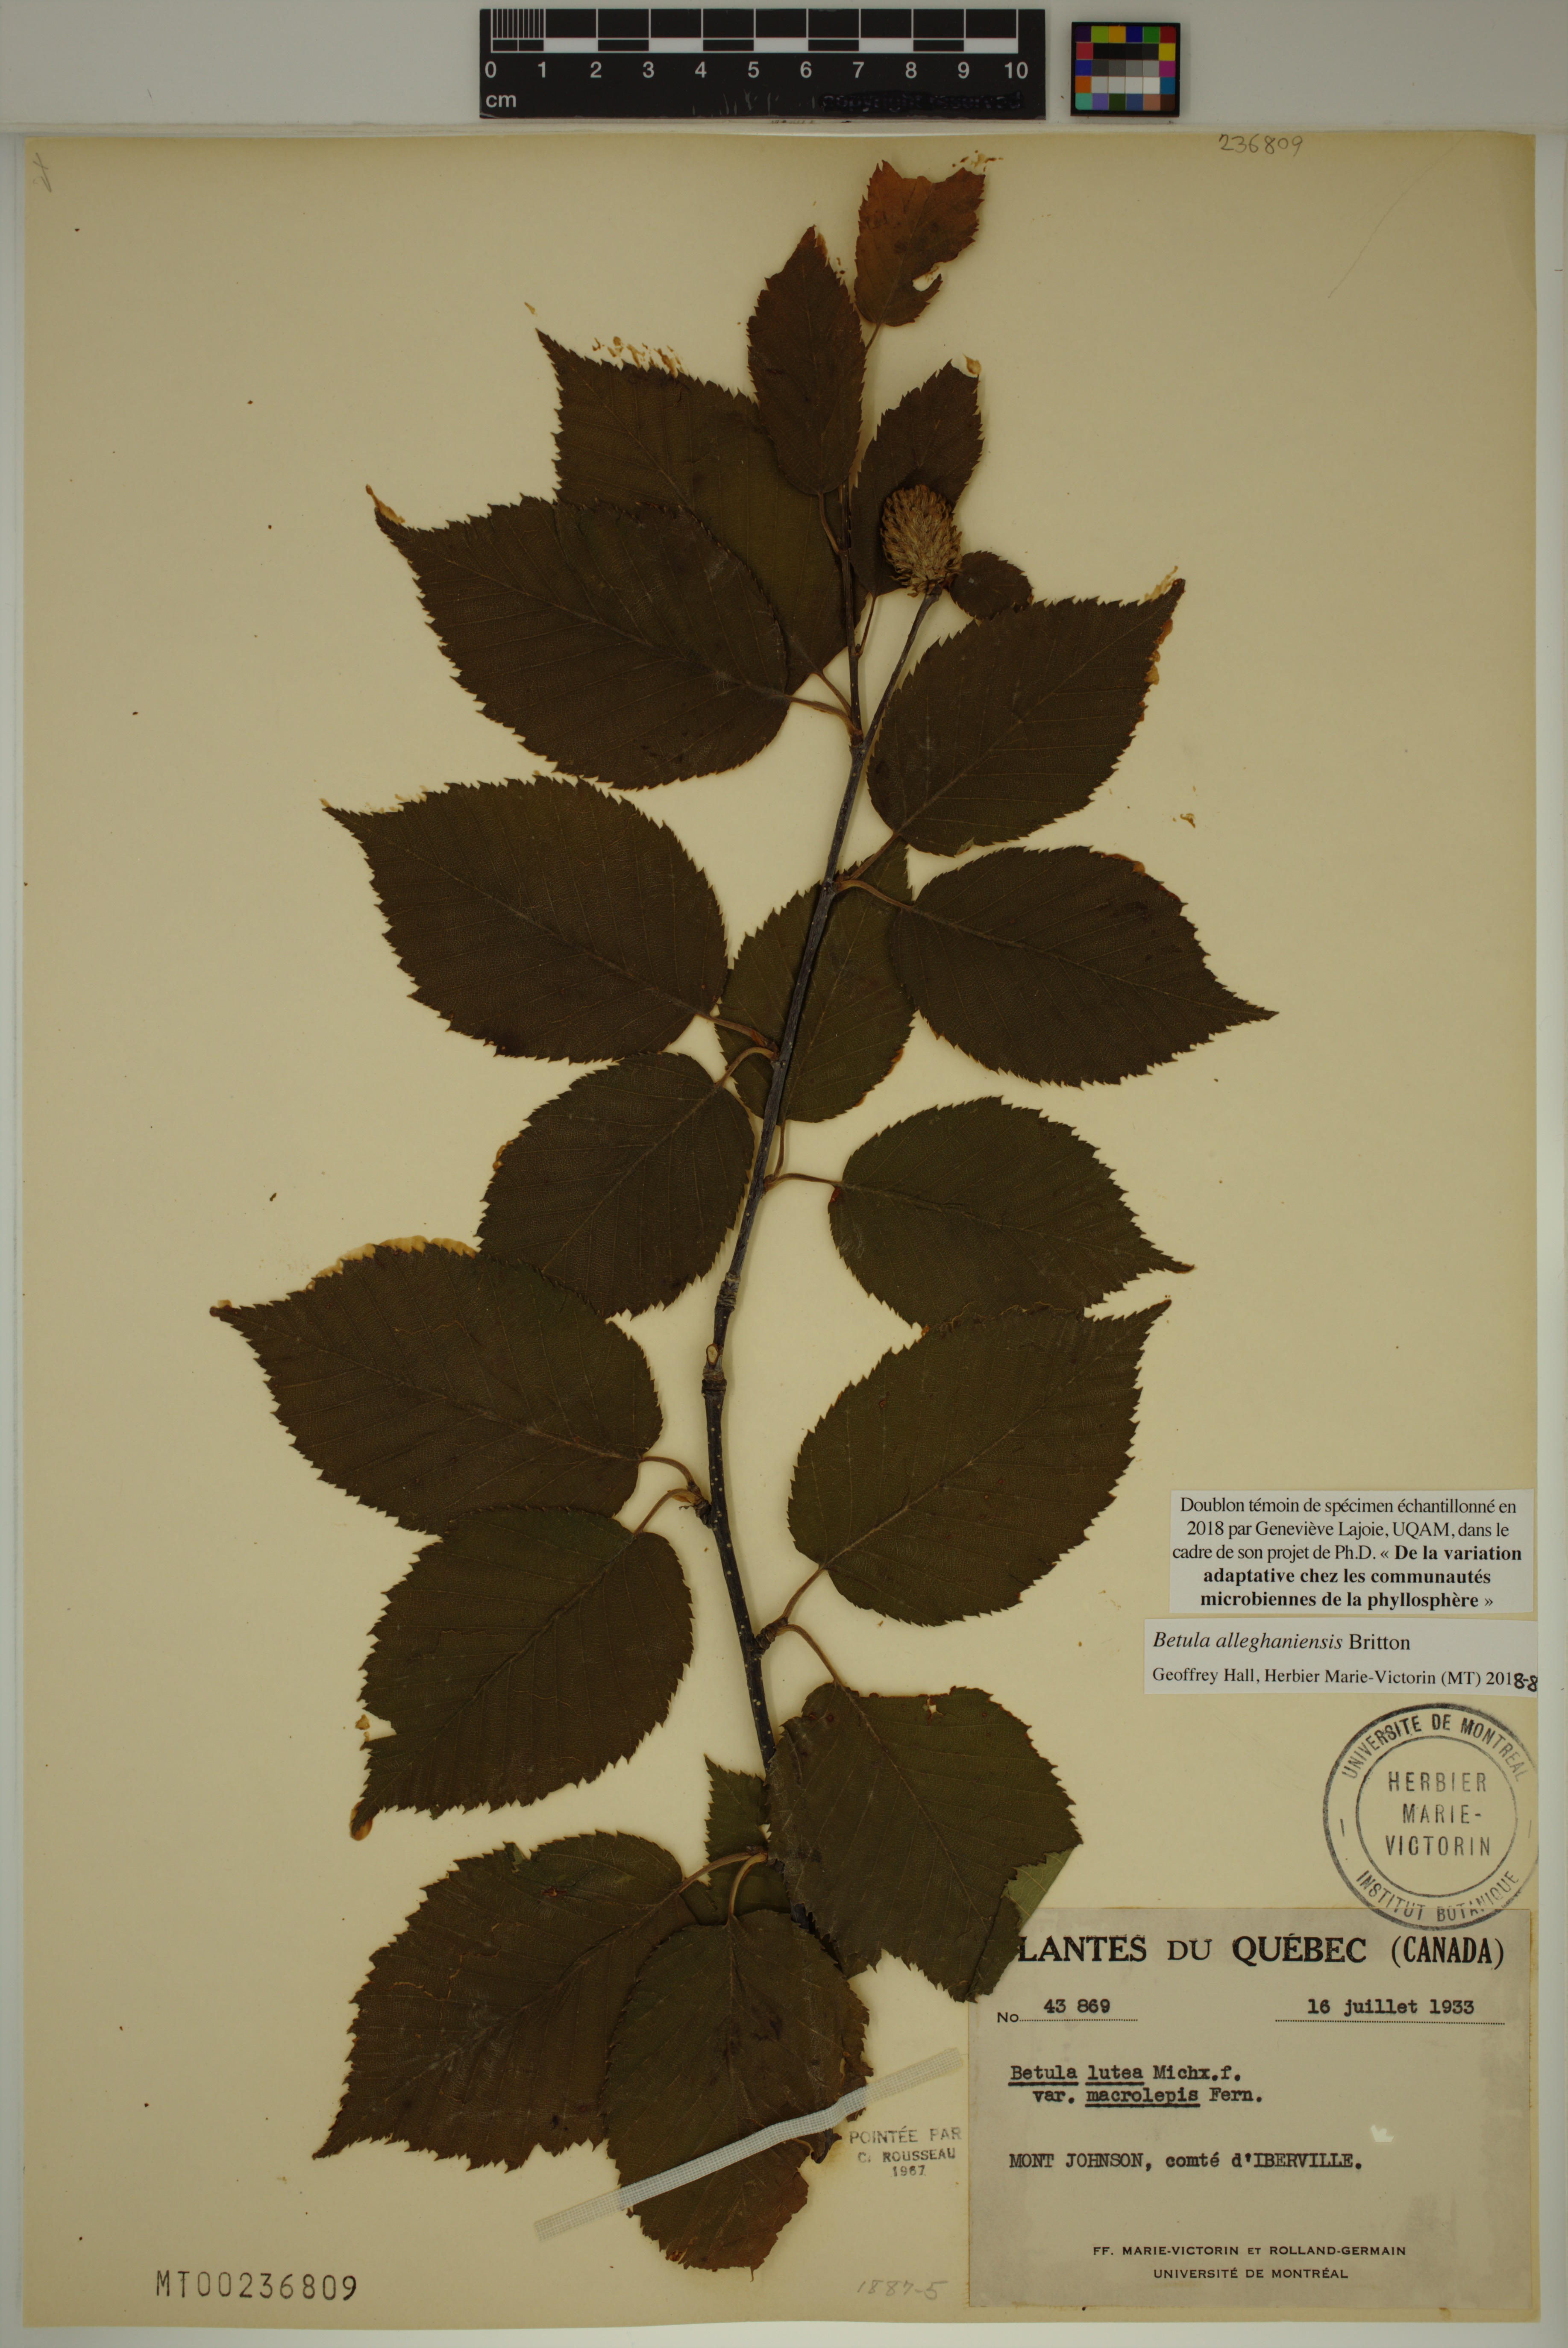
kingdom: Plantae
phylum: Tracheophyta
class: Magnoliopsida
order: Fagales
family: Betulaceae
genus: Betula
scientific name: Betula alleghaniensis
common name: Yellow birch
